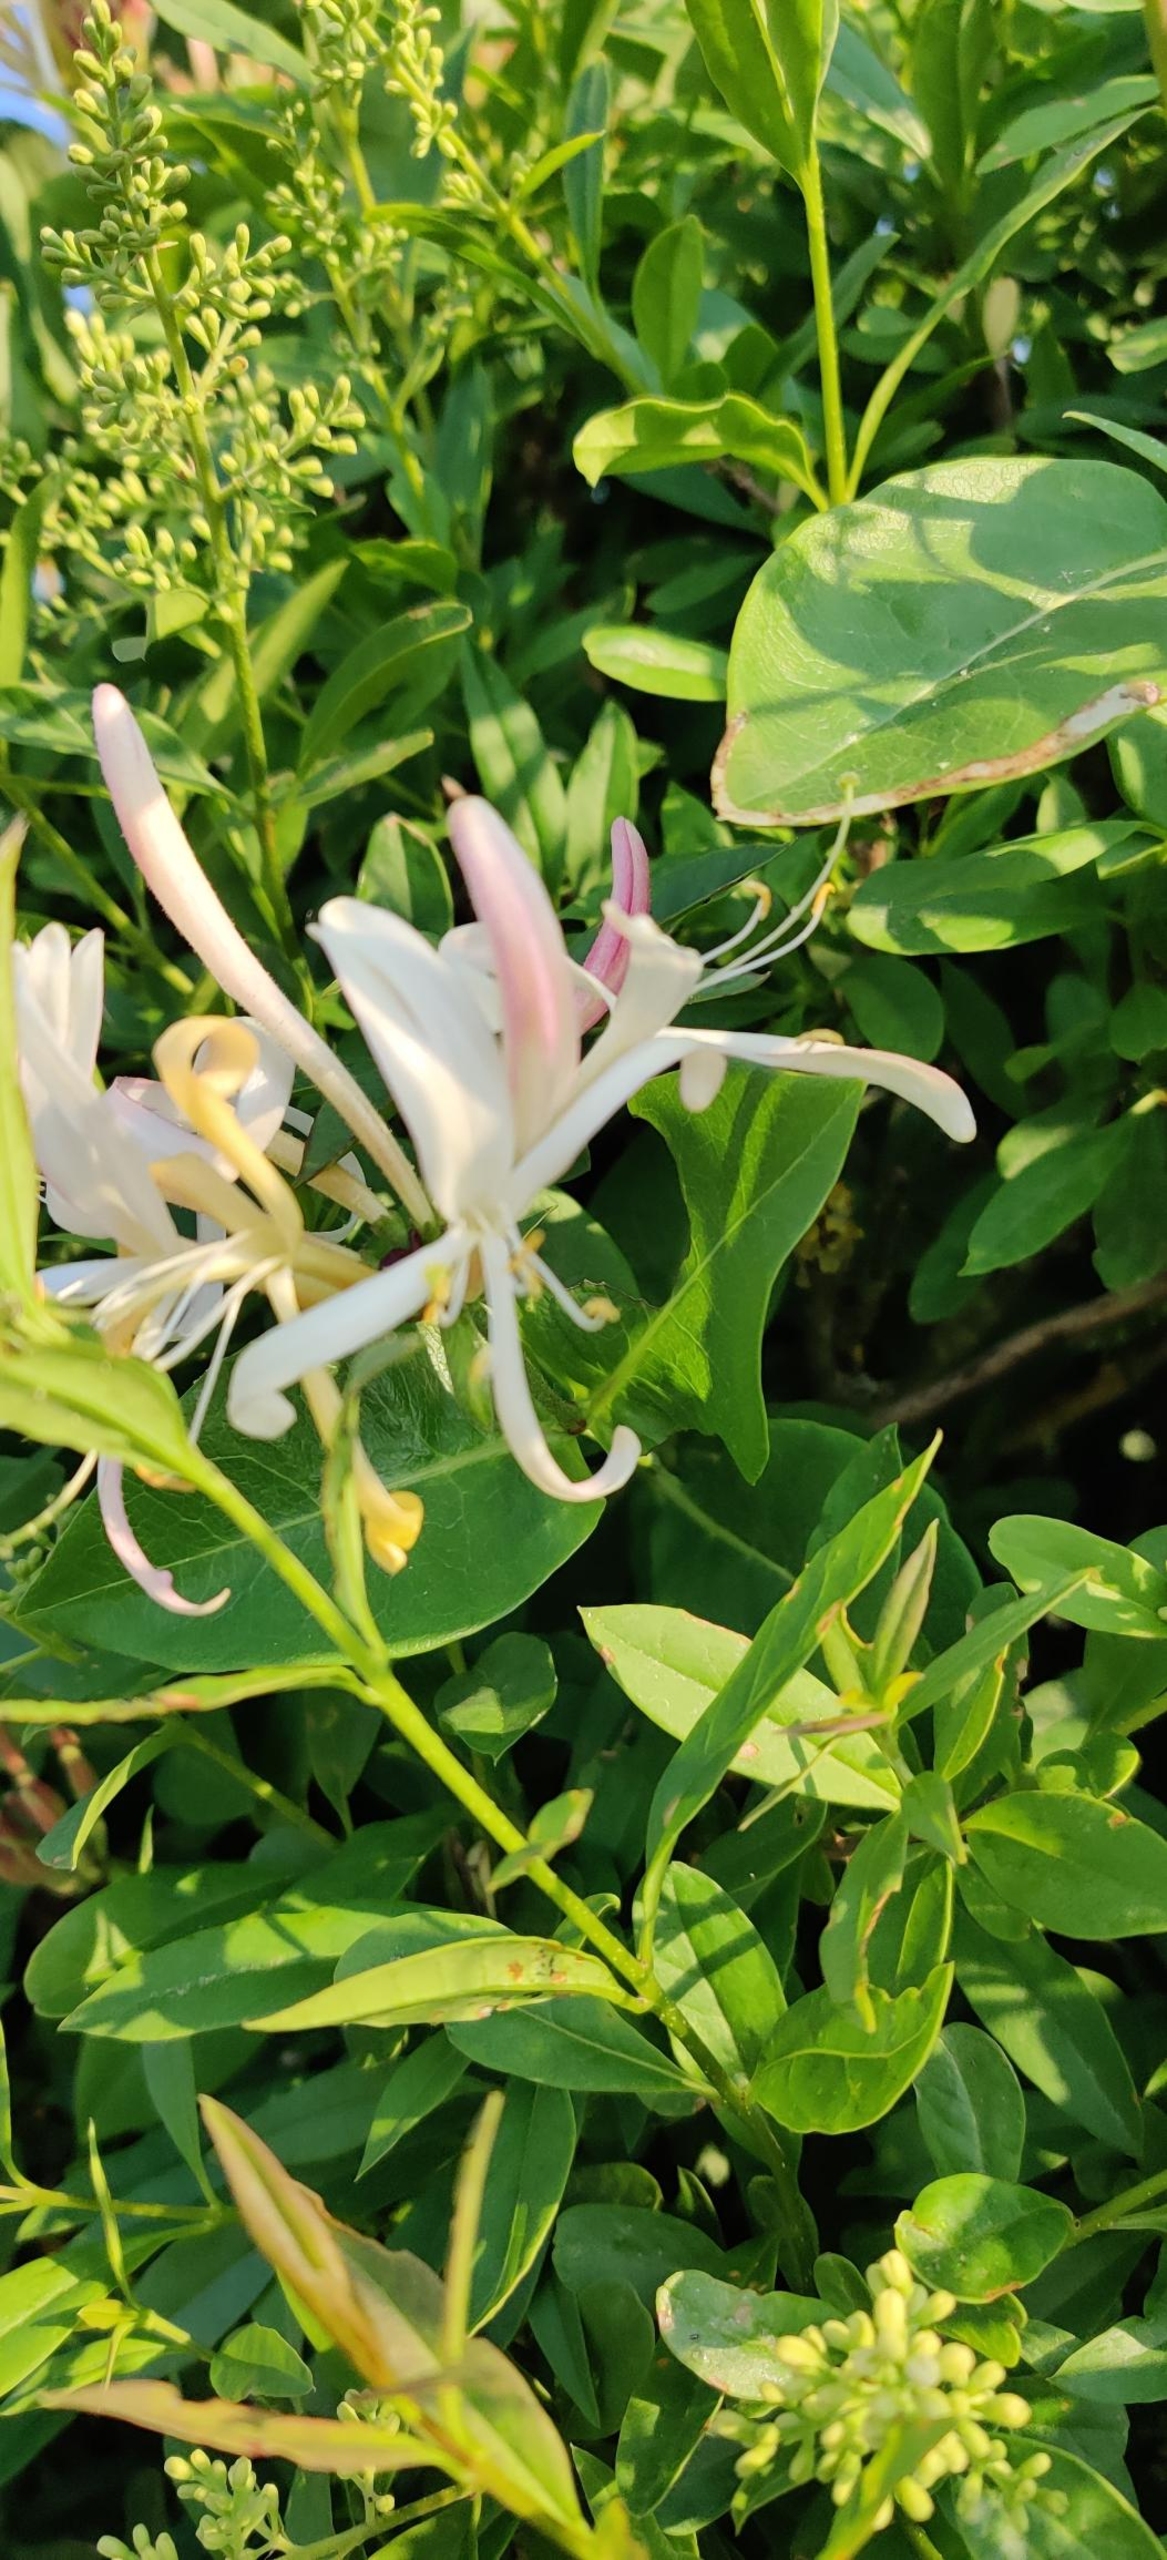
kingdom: Plantae
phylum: Tracheophyta
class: Magnoliopsida
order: Dipsacales
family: Caprifoliaceae
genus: Lonicera
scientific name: Lonicera periclymenum
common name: Almindelig gedeblad
